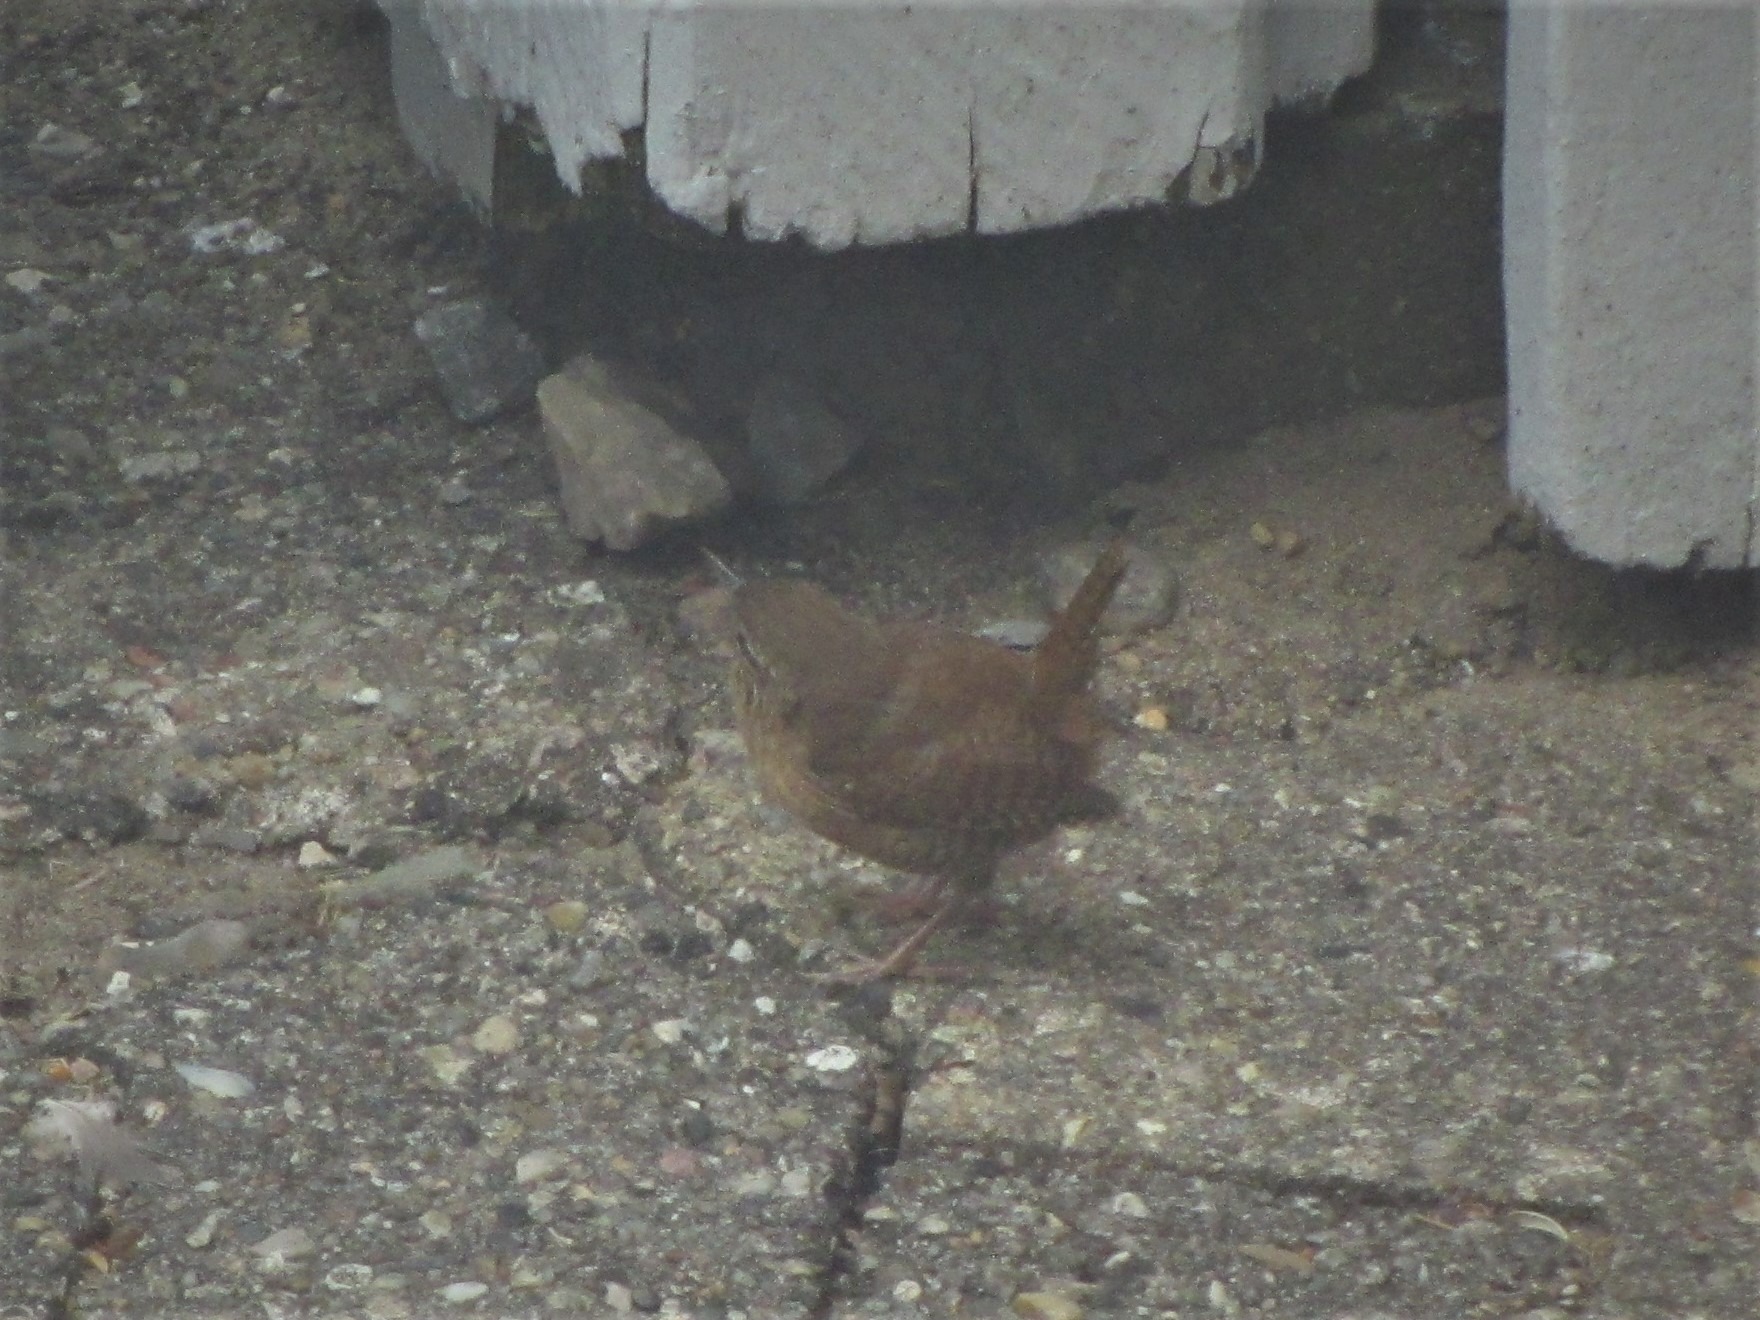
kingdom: Animalia
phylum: Chordata
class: Aves
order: Passeriformes
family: Troglodytidae
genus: Troglodytes
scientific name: Troglodytes troglodytes
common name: Gærdesmutte
